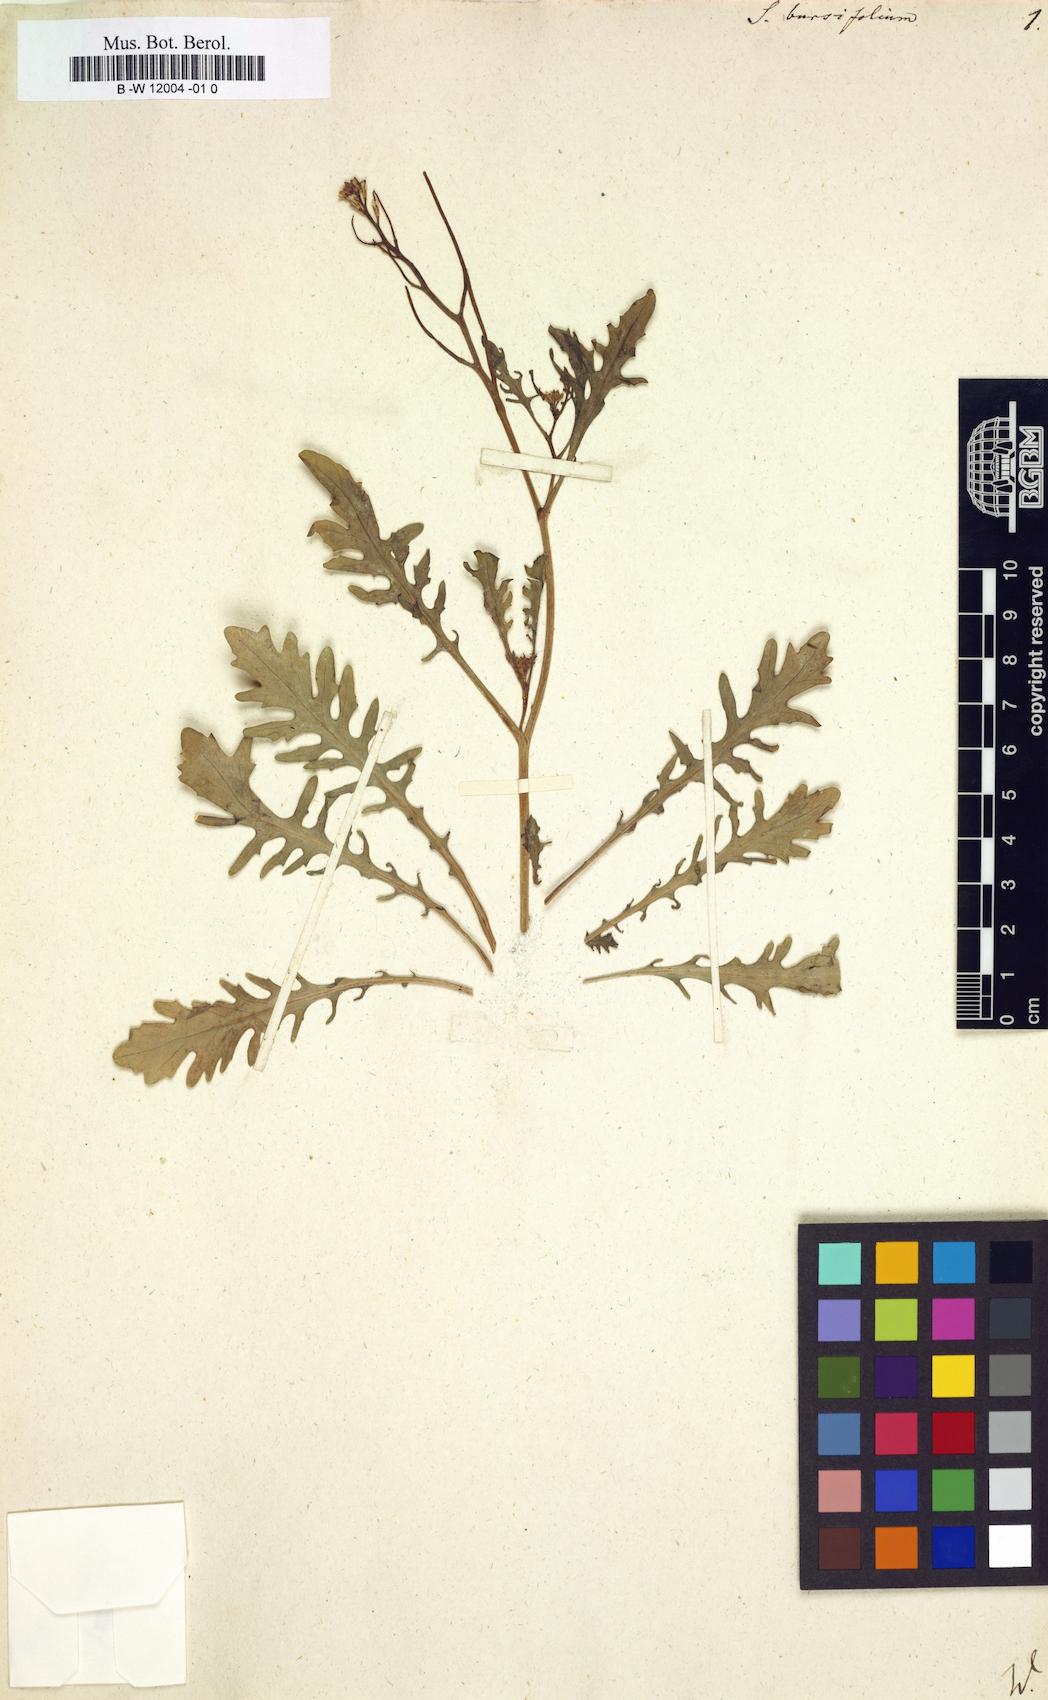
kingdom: Plantae
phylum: Tracheophyta
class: Magnoliopsida
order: Brassicales
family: Brassicaceae
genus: Sisymbrium
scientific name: Sisymbrium bursifolium
